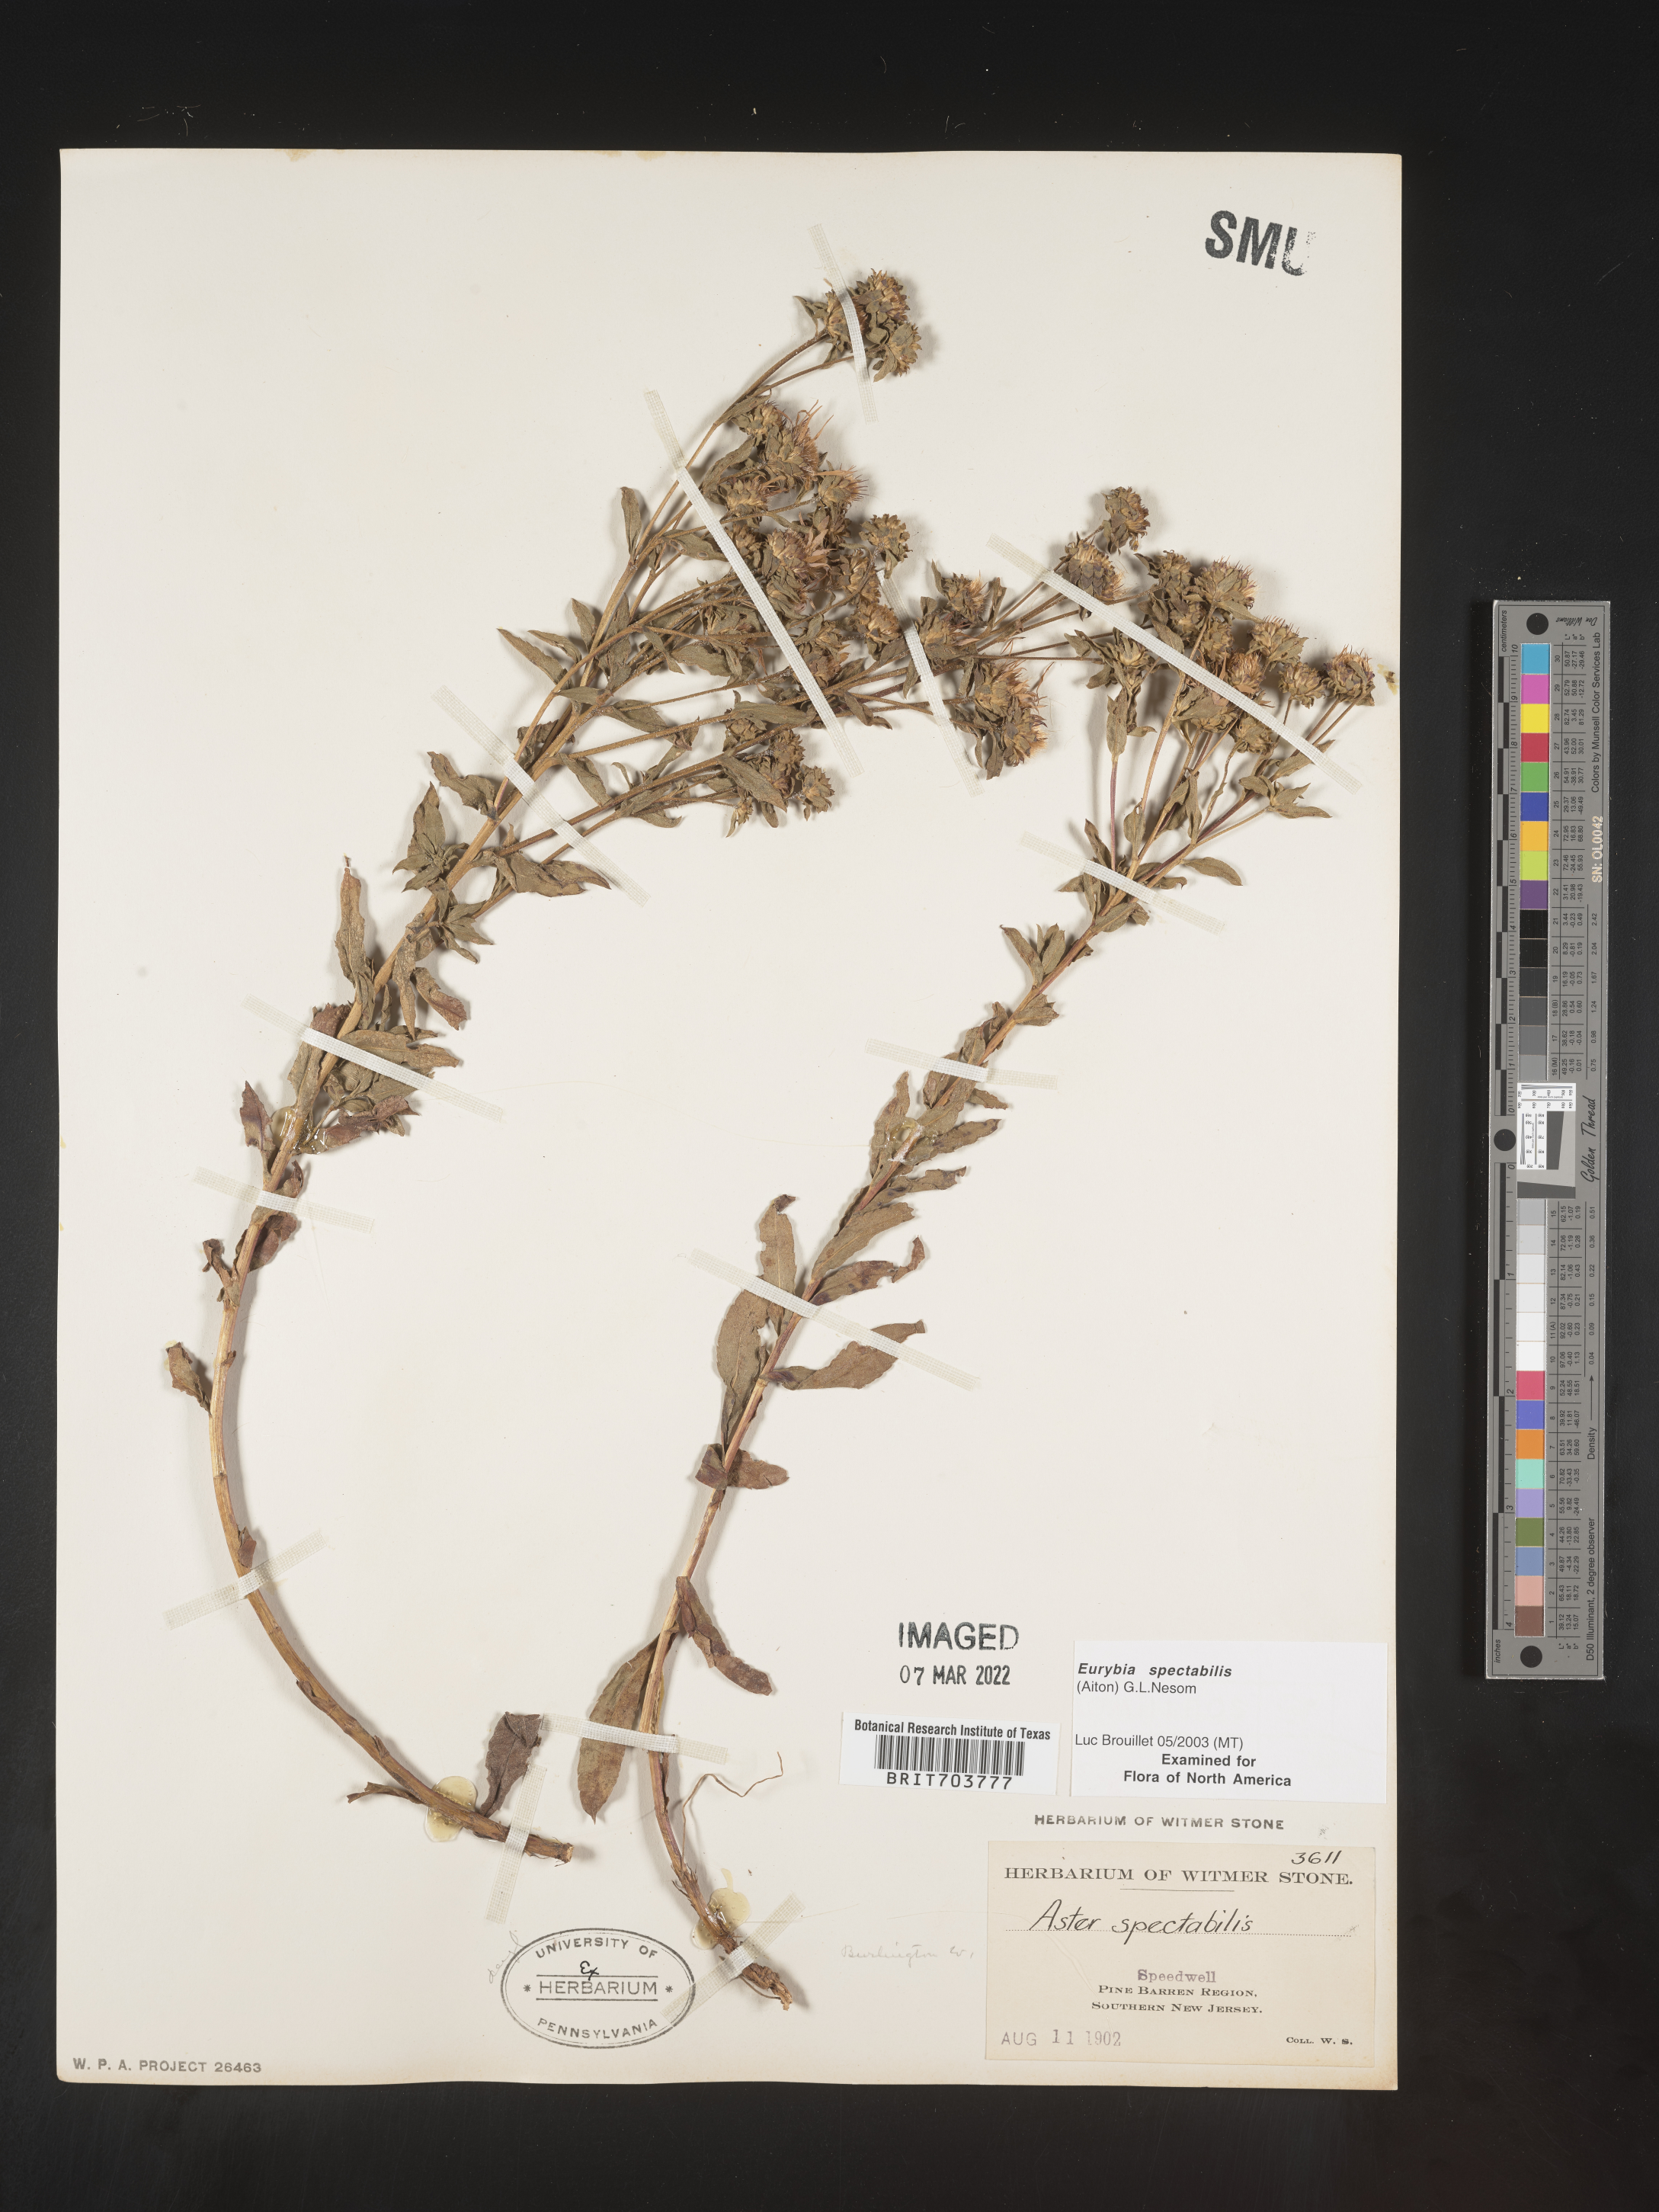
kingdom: Plantae
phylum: Tracheophyta
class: Magnoliopsida
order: Asterales
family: Asteraceae
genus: Eurybia
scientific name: Eurybia spectabilis
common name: Low showy aster
